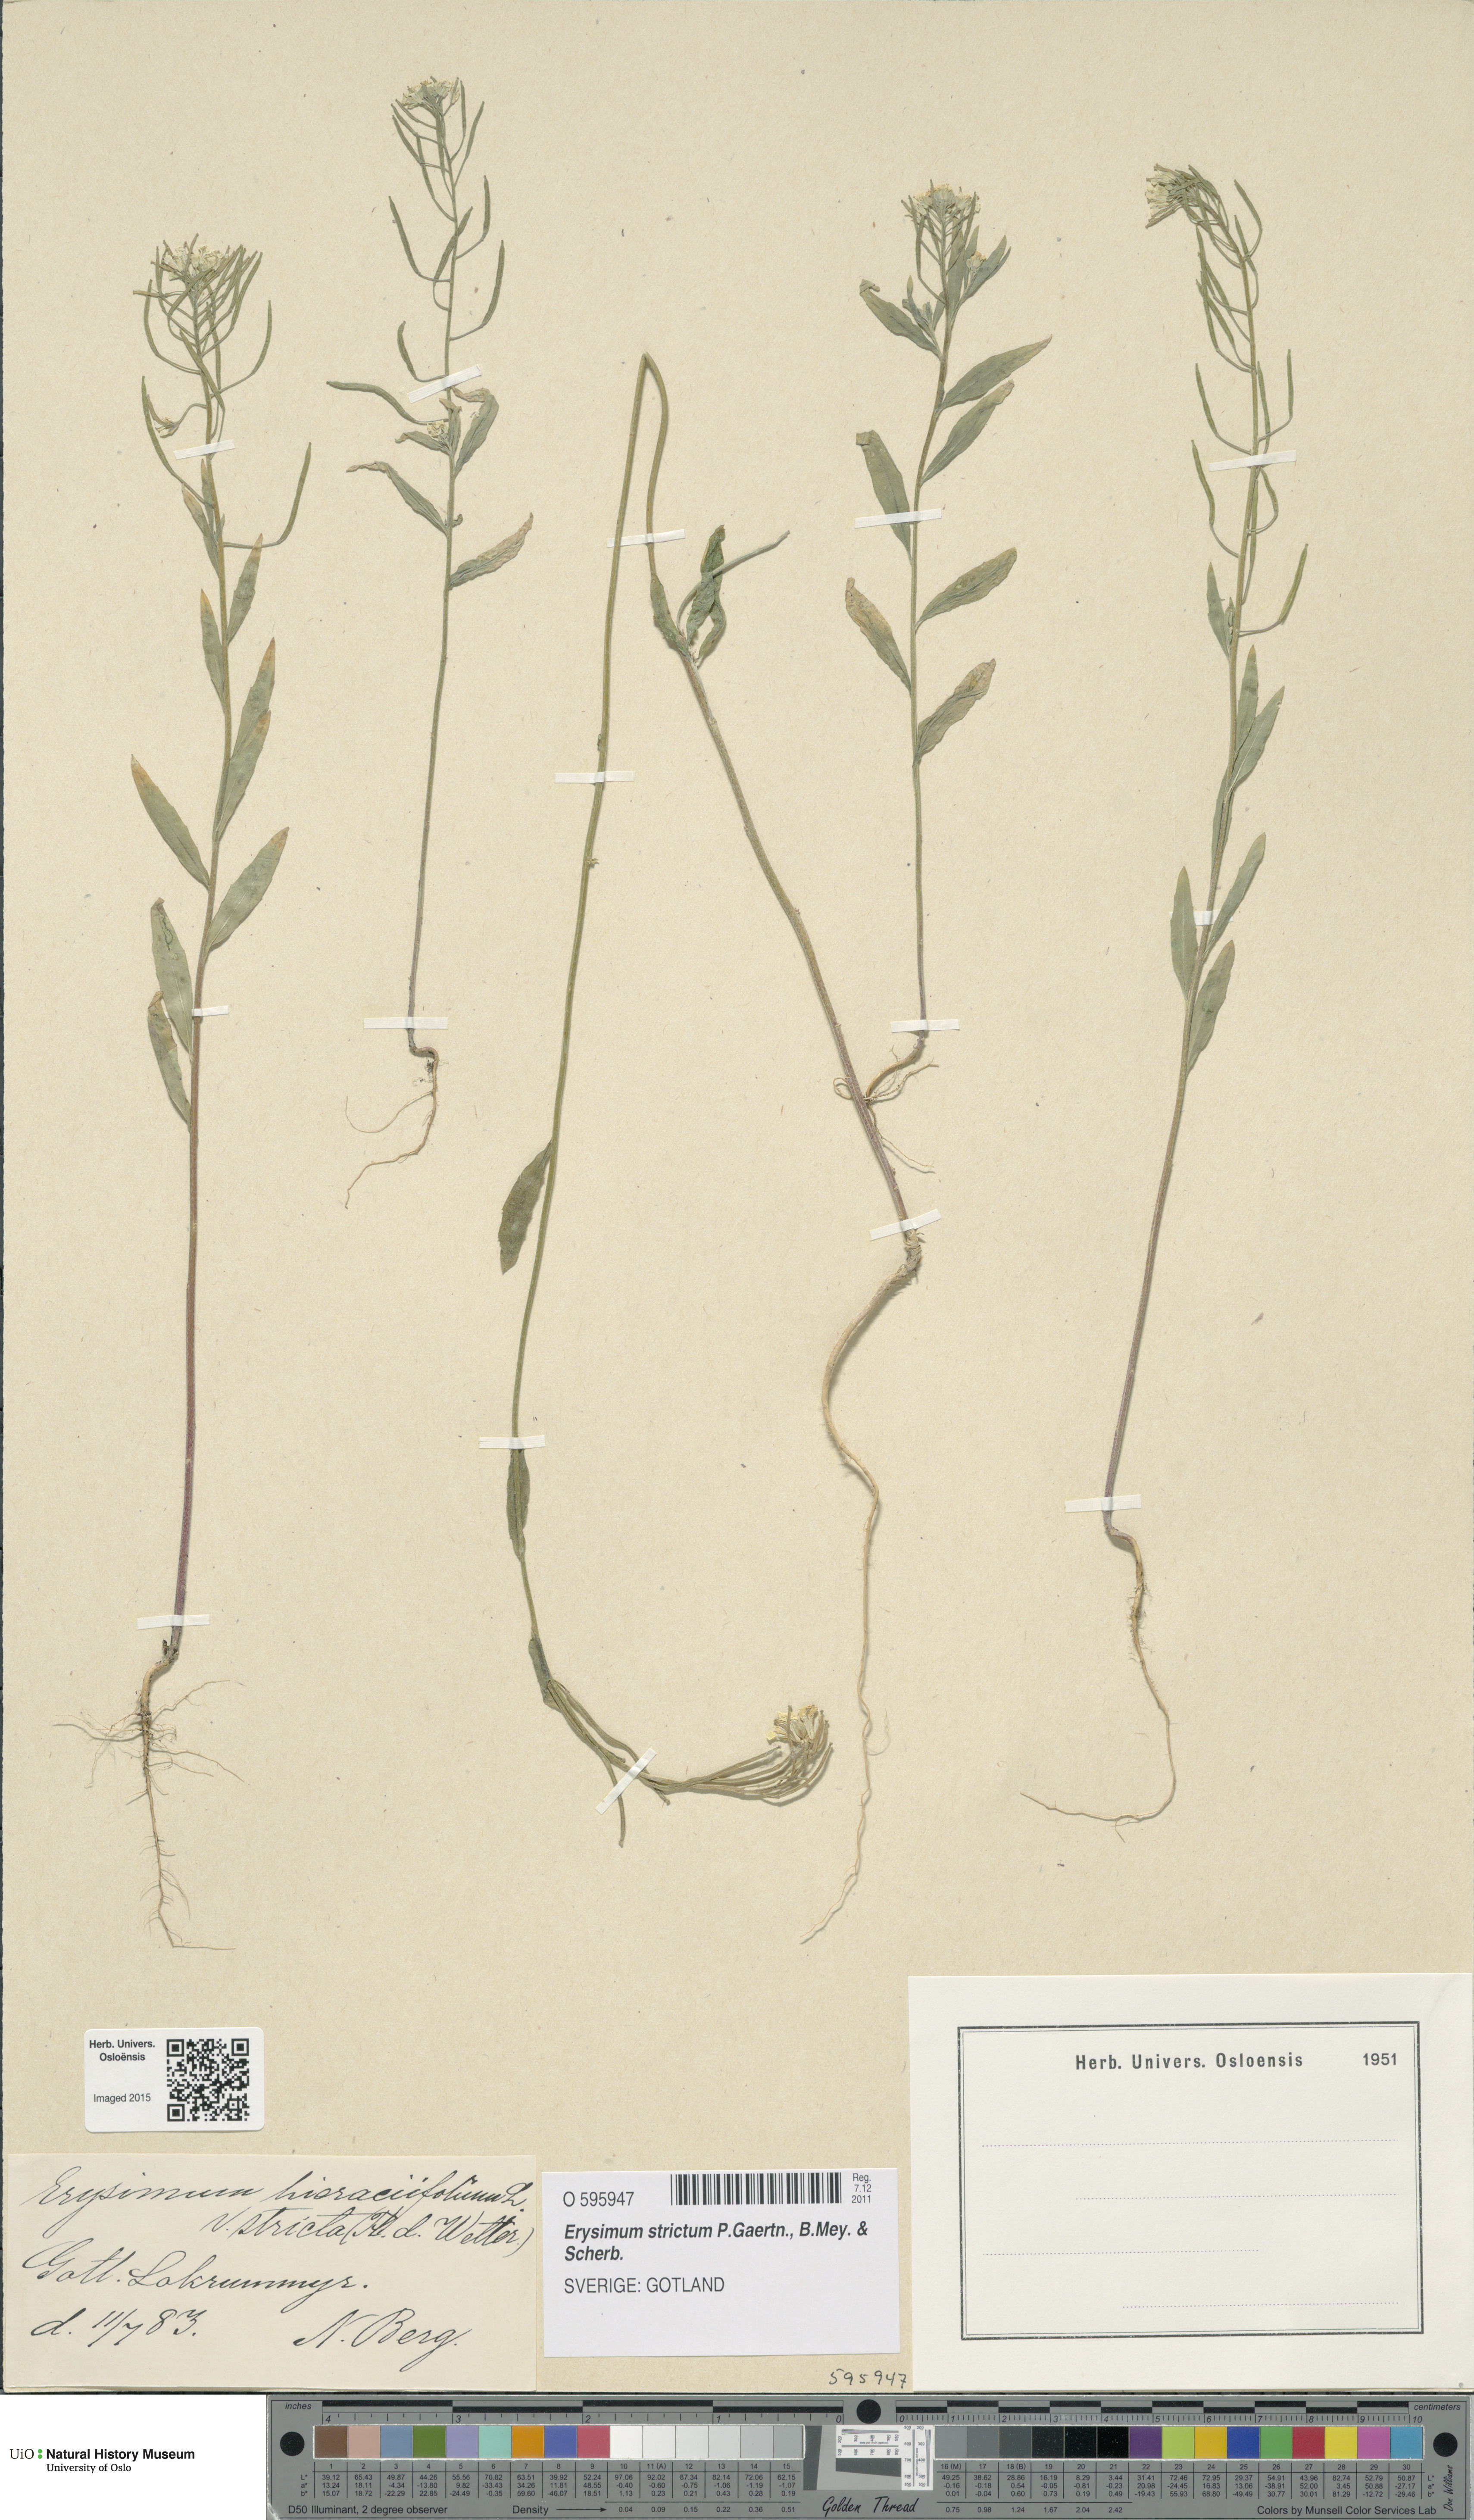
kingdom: Plantae
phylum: Tracheophyta
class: Magnoliopsida
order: Brassicales
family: Brassicaceae
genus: Erysimum
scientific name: Erysimum hieraciifolium
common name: European wallflower
